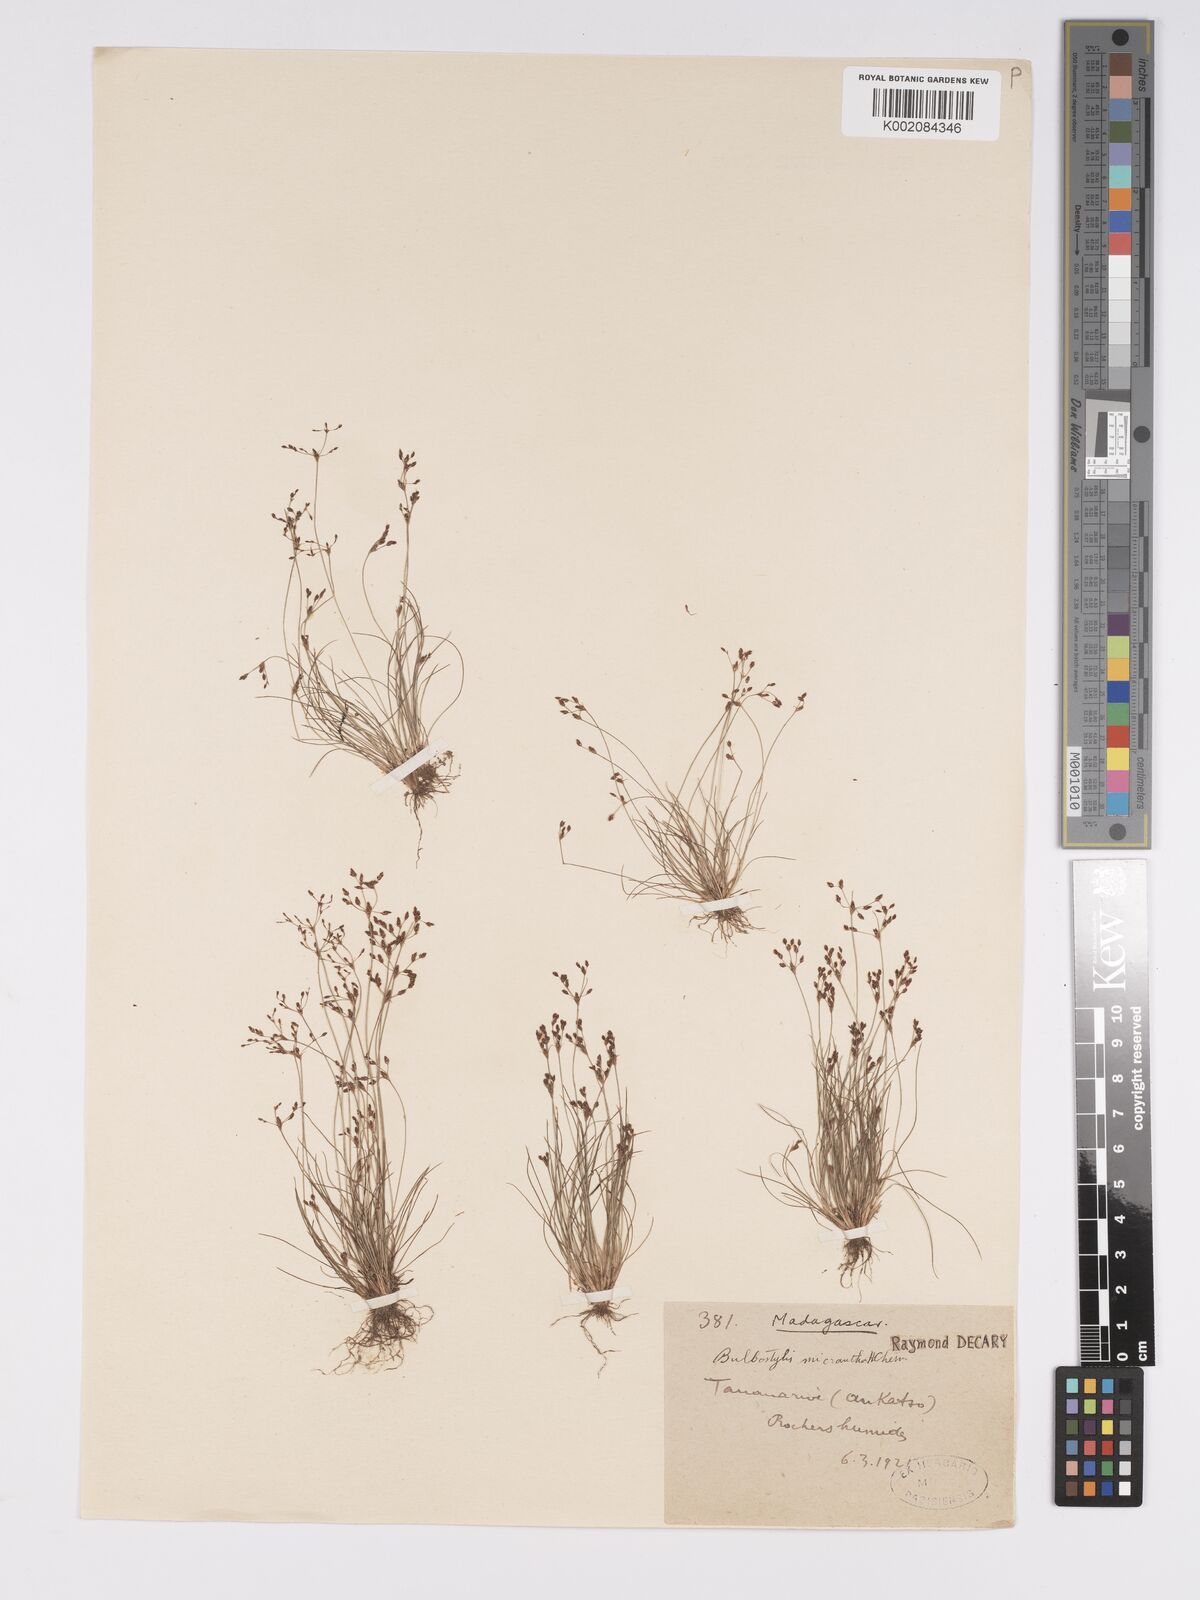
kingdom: Plantae
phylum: Tracheophyta
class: Liliopsida
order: Poales
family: Cyperaceae
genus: Bulbostylis
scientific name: Bulbostylis micranthera
